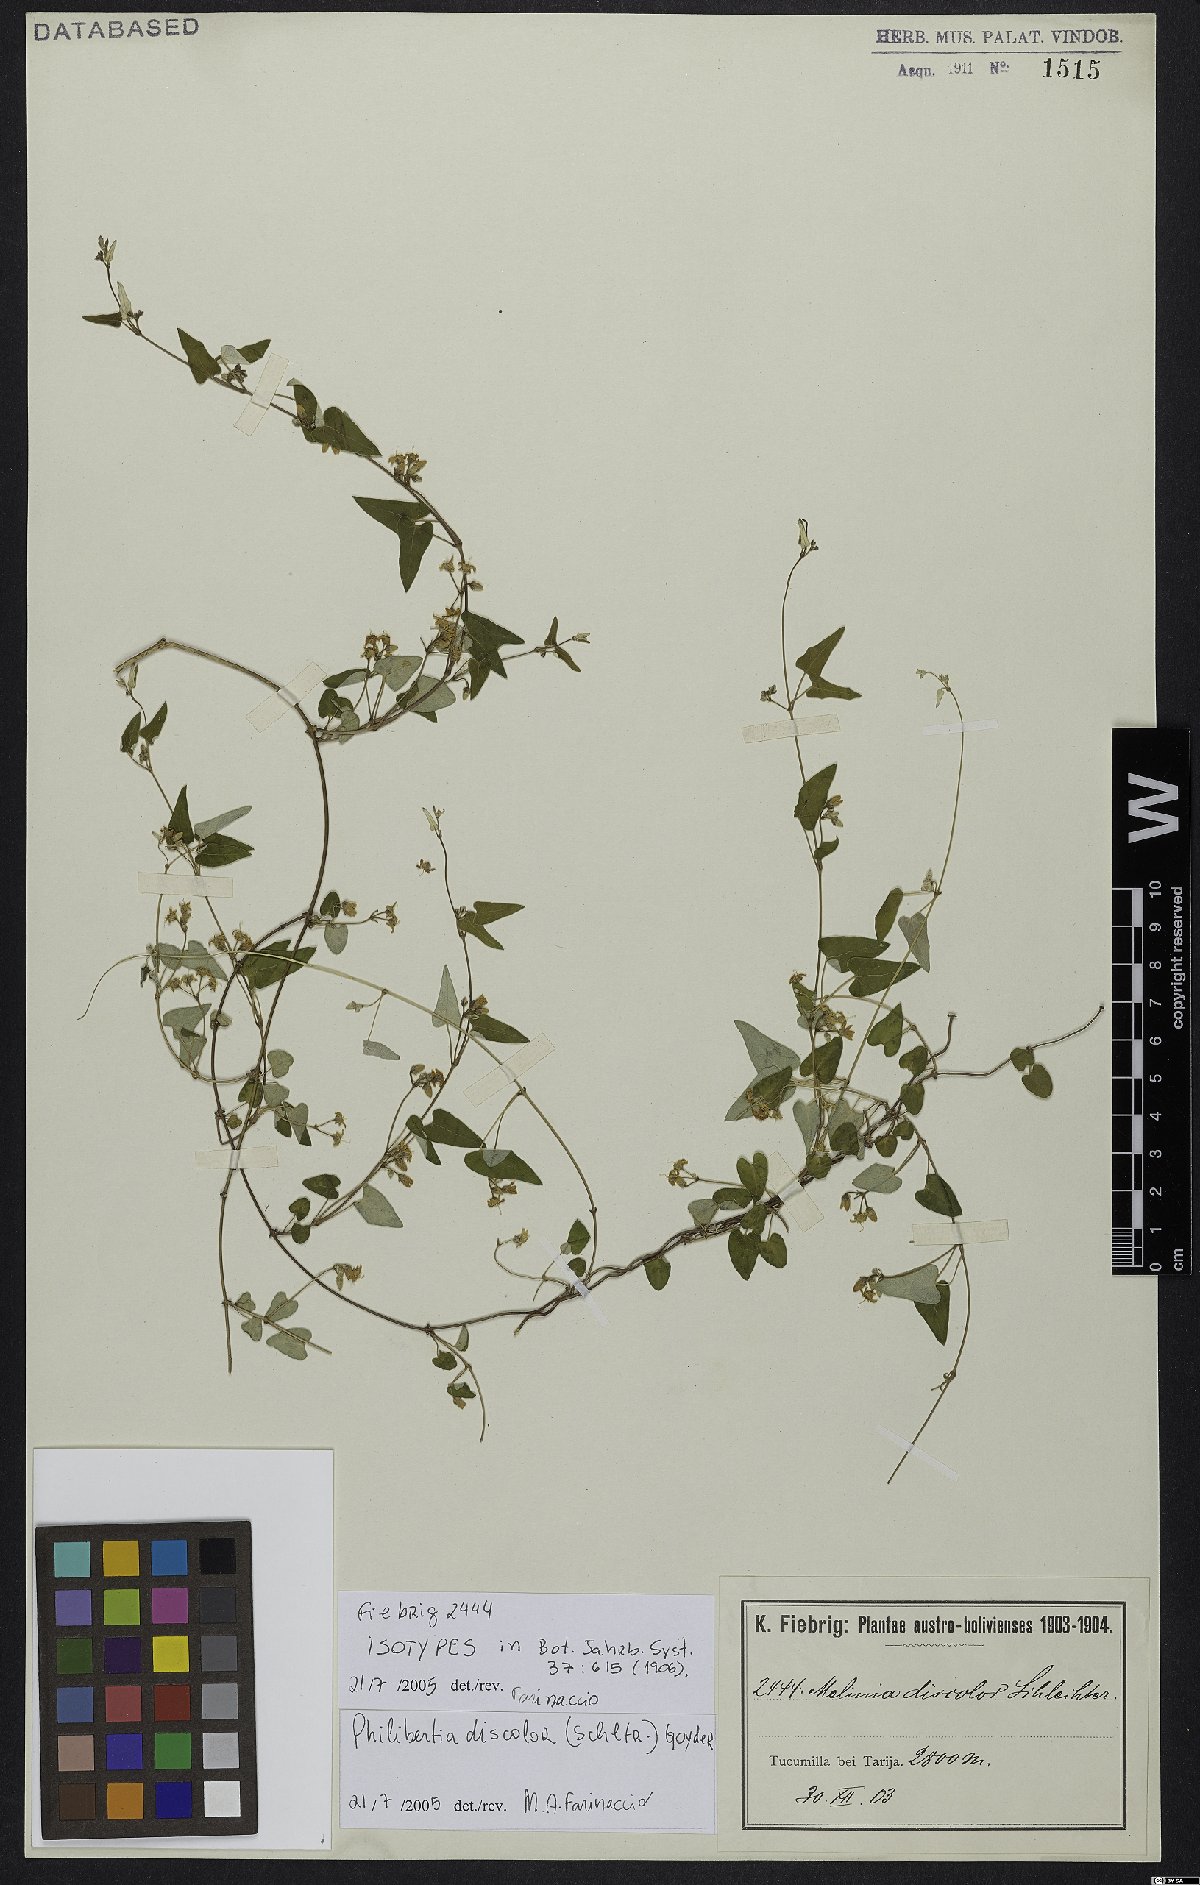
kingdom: Plantae
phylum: Tracheophyta
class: Magnoliopsida
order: Gentianales
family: Apocynaceae
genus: Philibertia
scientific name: Philibertia discolor
